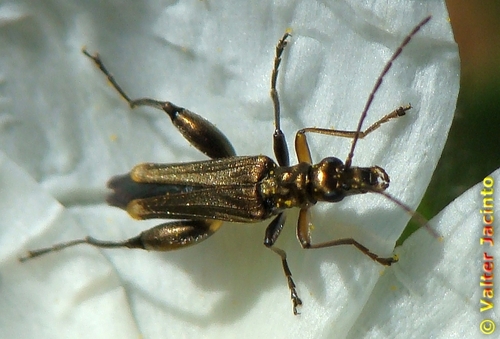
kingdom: Animalia
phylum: Arthropoda
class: Insecta
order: Coleoptera
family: Oedemeridae
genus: Oedemera
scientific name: Oedemera barbara
